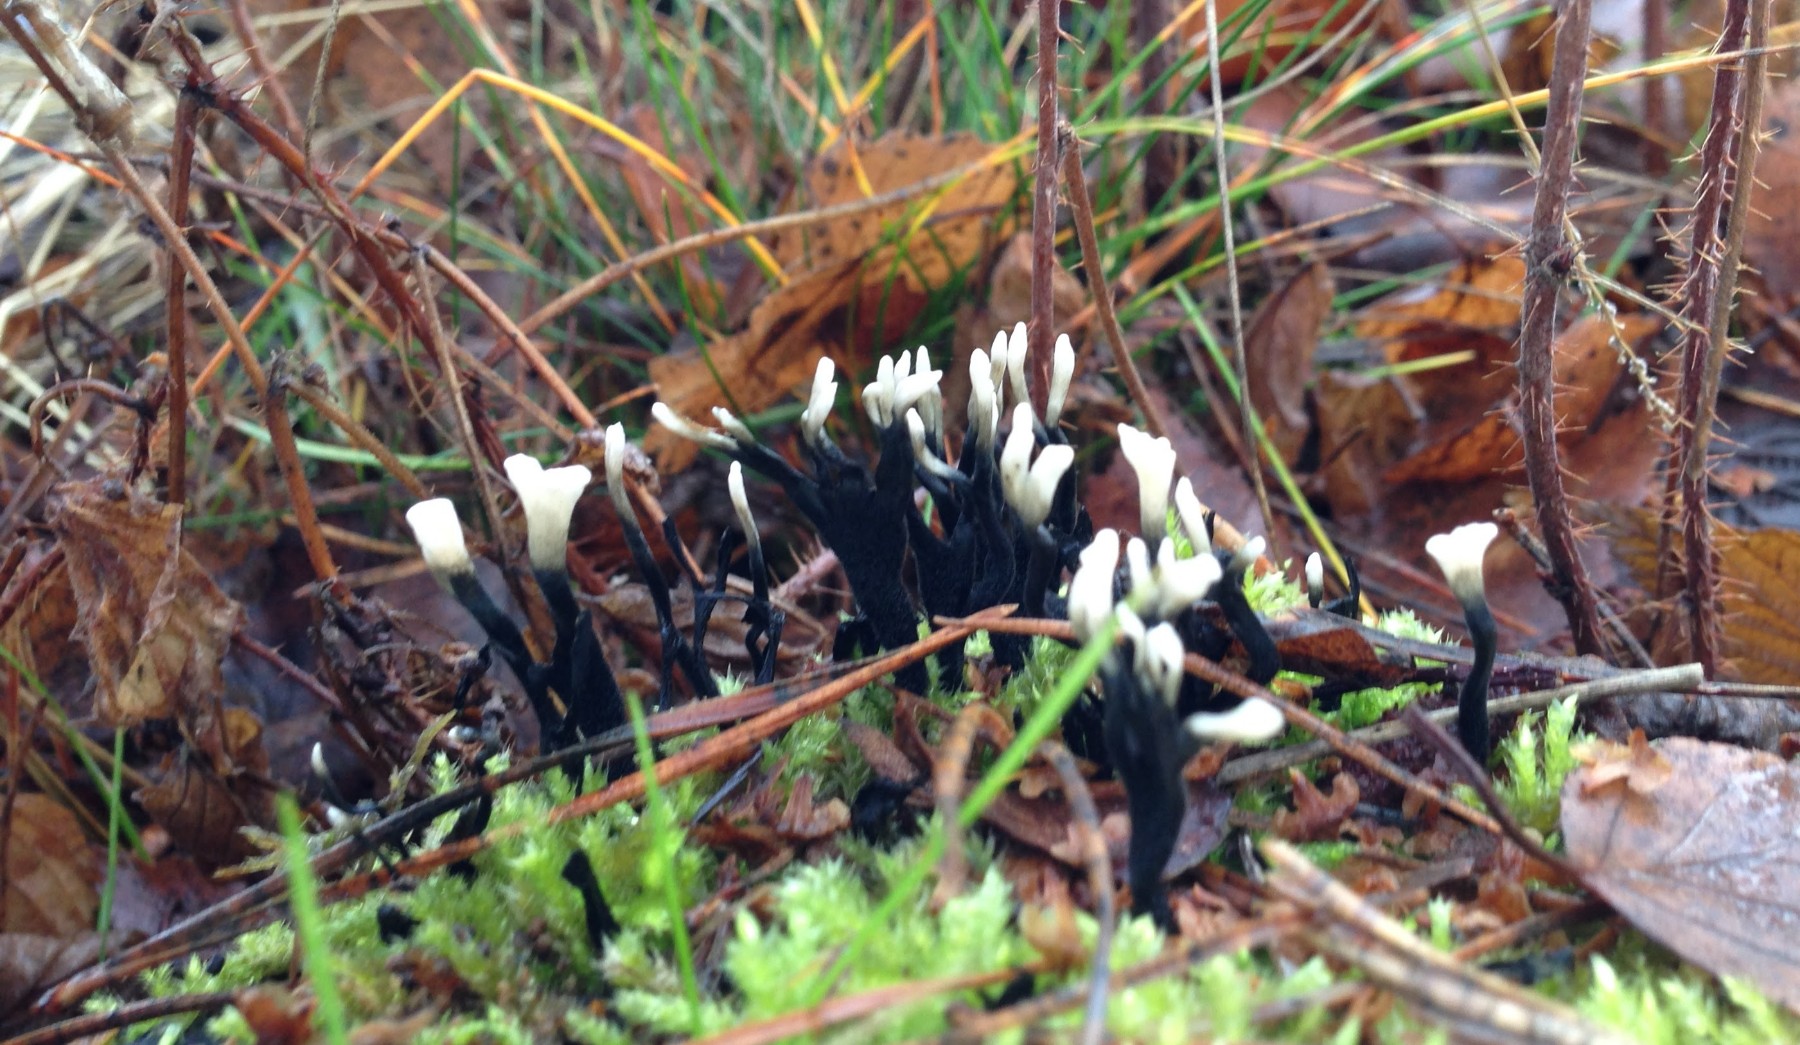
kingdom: Fungi
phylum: Ascomycota
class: Sordariomycetes
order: Xylariales
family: Xylariaceae
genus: Xylaria
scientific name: Xylaria hypoxylon
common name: grenet stødsvamp
